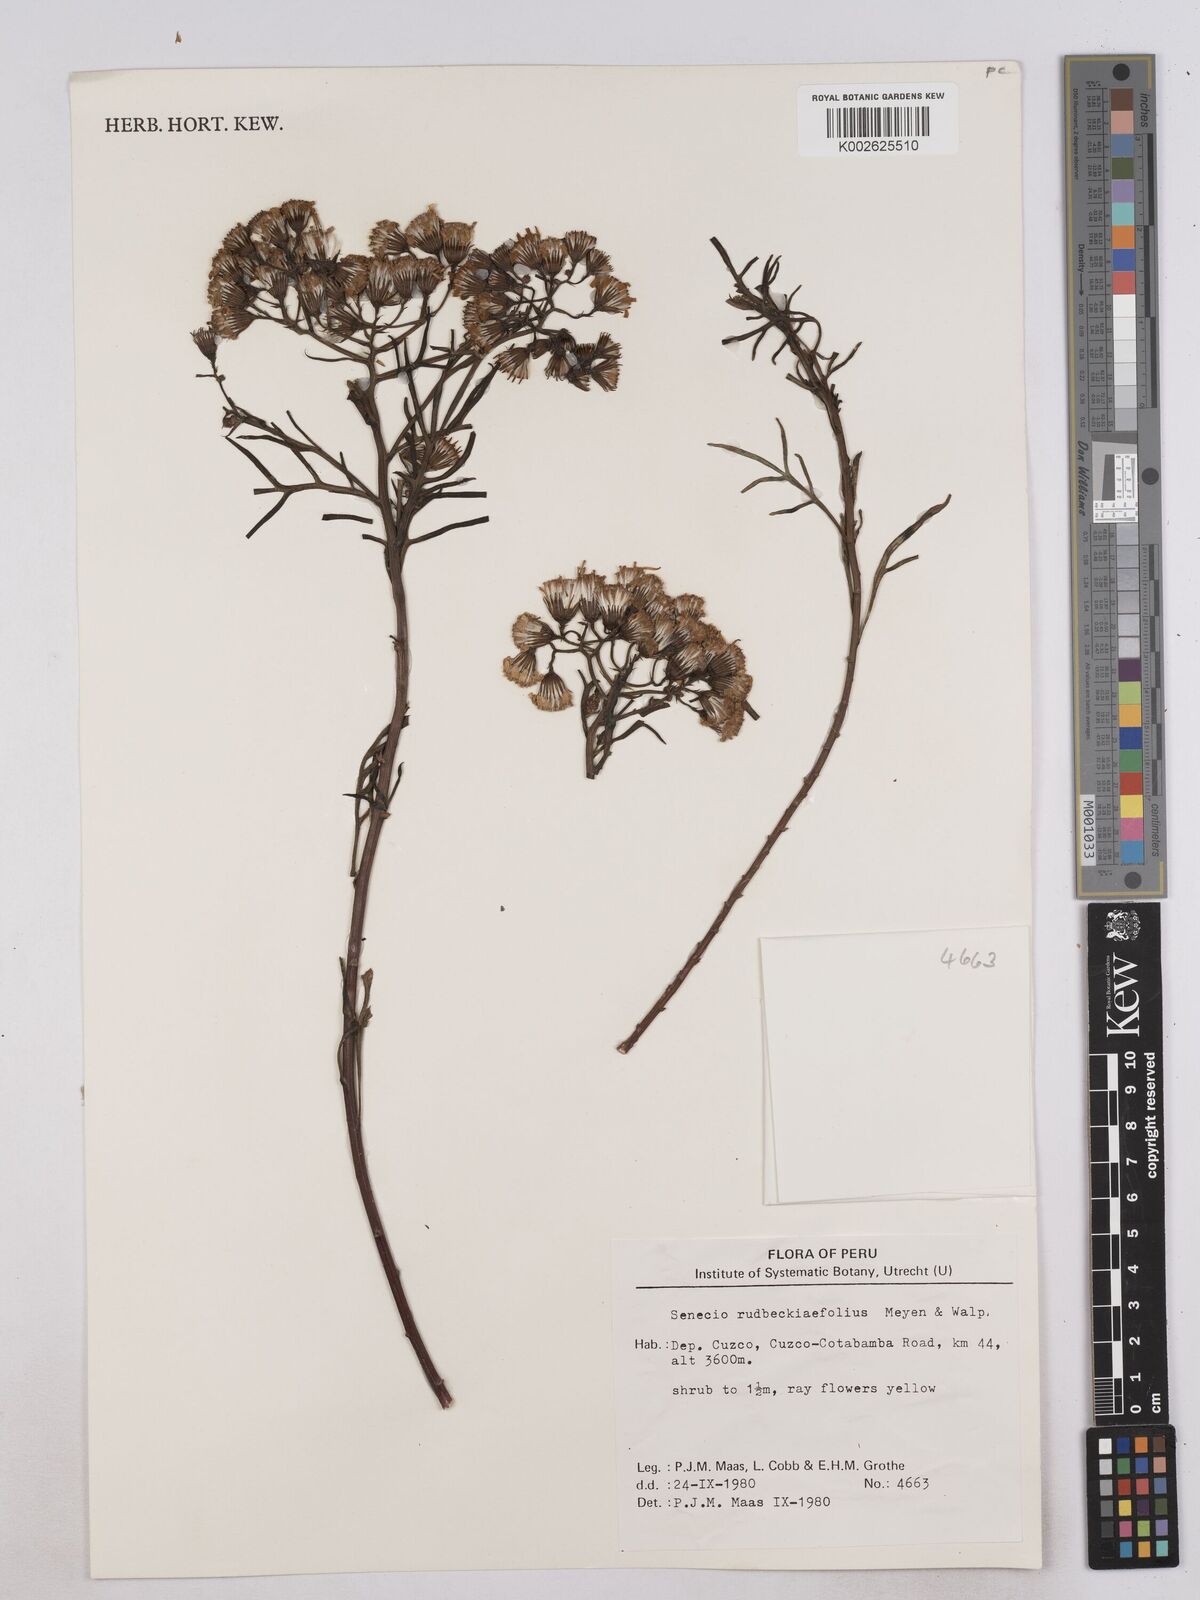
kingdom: Plantae
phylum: Tracheophyta
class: Magnoliopsida
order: Asterales
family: Asteraceae
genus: Senecio
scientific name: Senecio rudbeckiifolius
